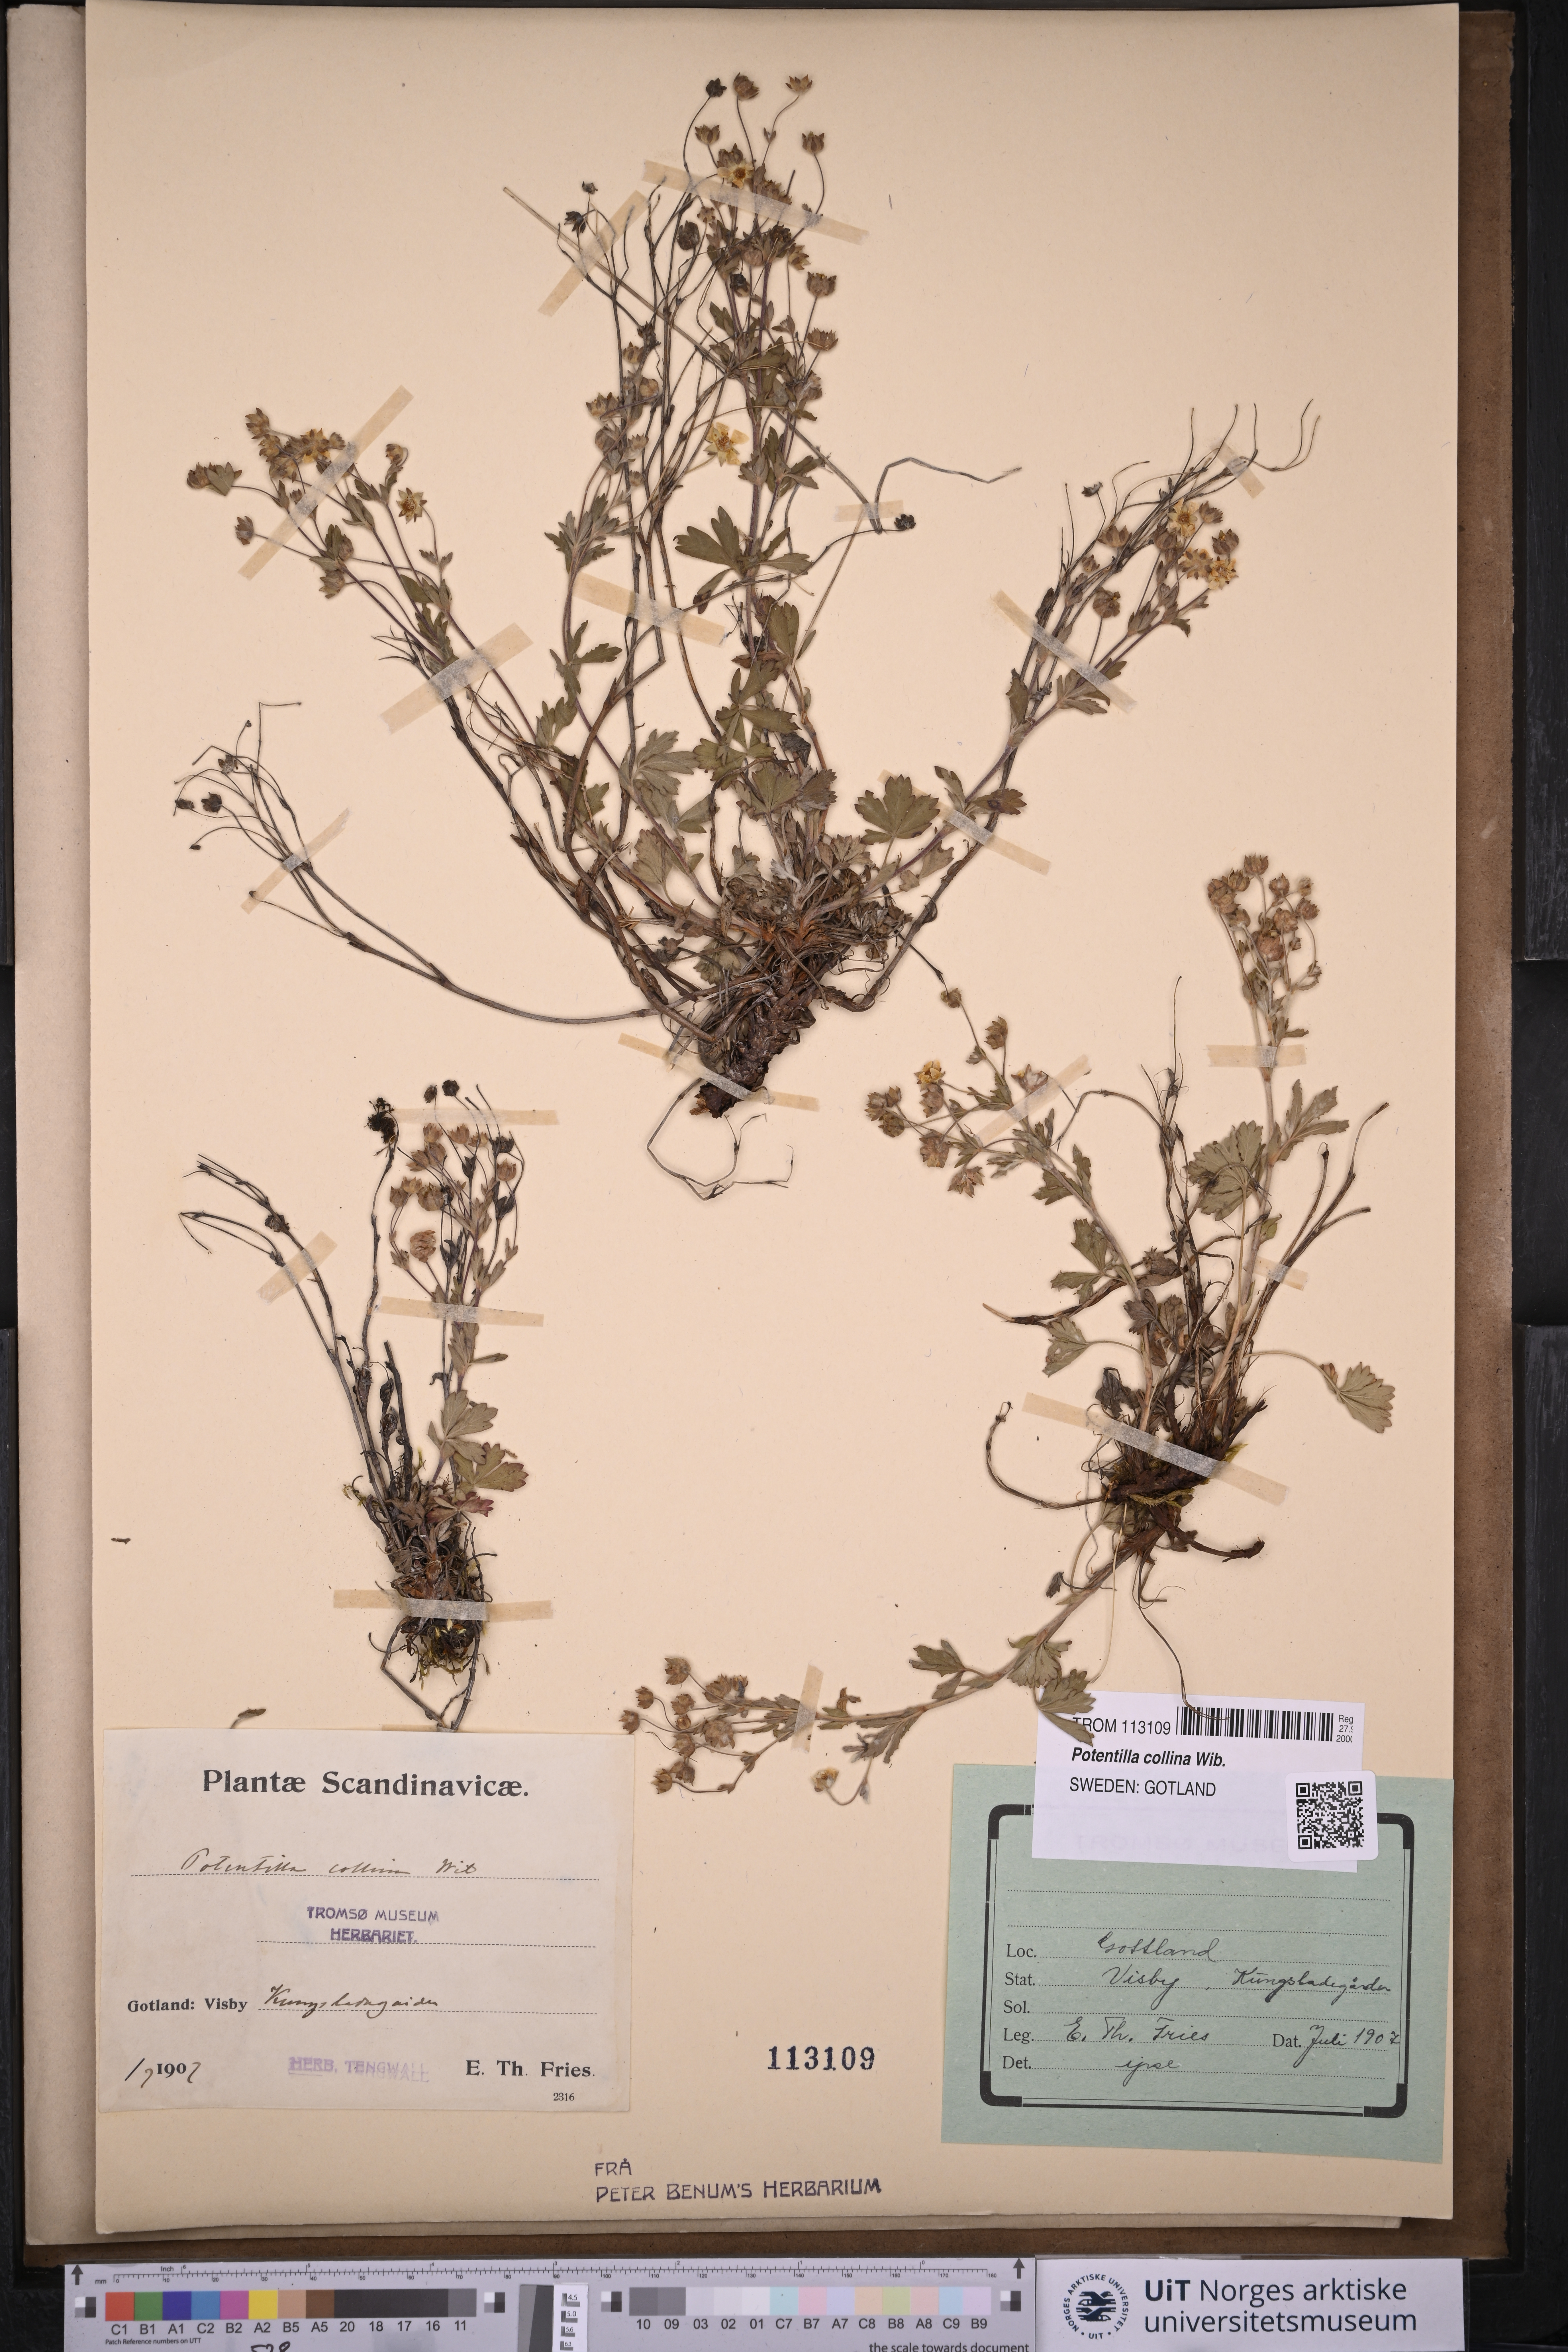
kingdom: Plantae
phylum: Tracheophyta
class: Magnoliopsida
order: Rosales
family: Rosaceae
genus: Potentilla
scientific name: Potentilla sterneri
